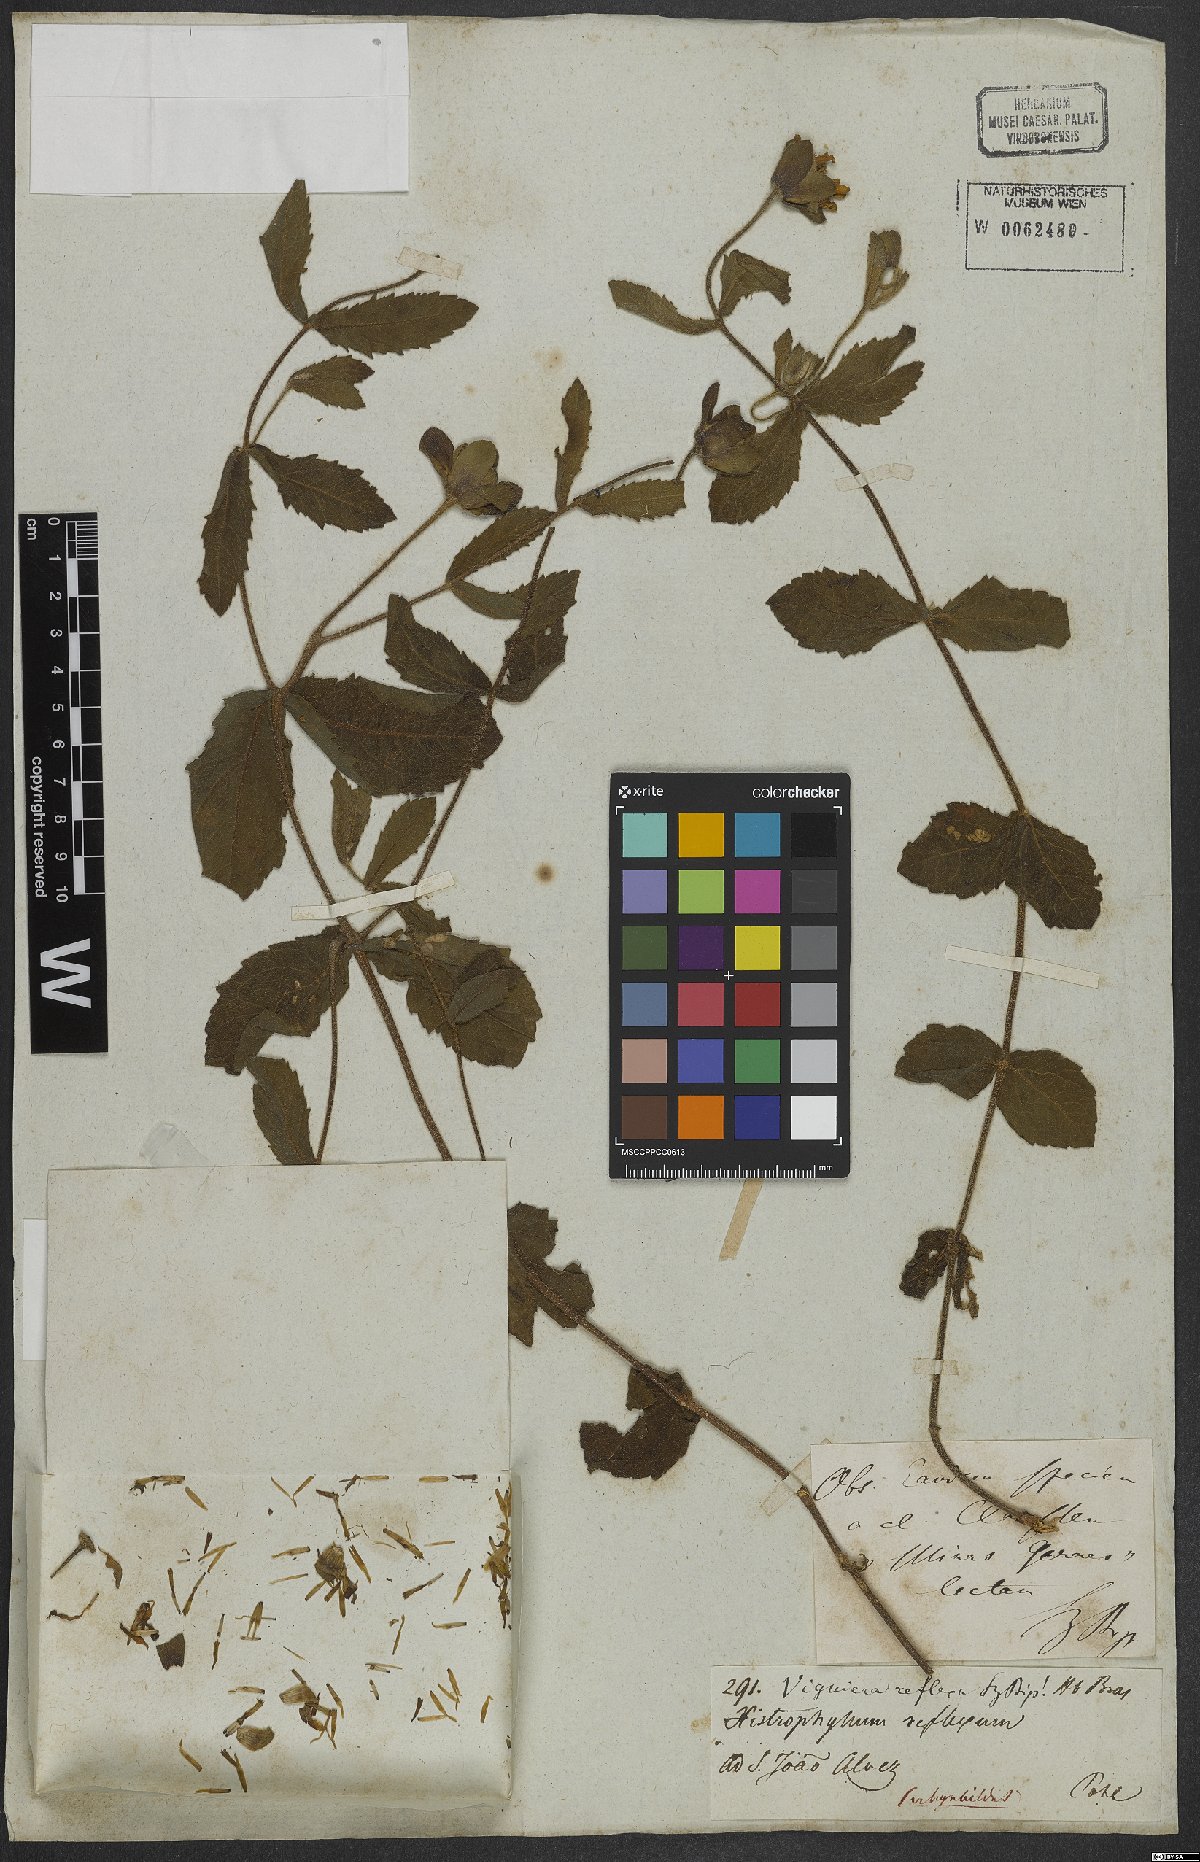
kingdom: Plantae
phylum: Tracheophyta
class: Magnoliopsida
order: Asterales
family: Asteraceae
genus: Wedelia
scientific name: Wedelia reflexa
